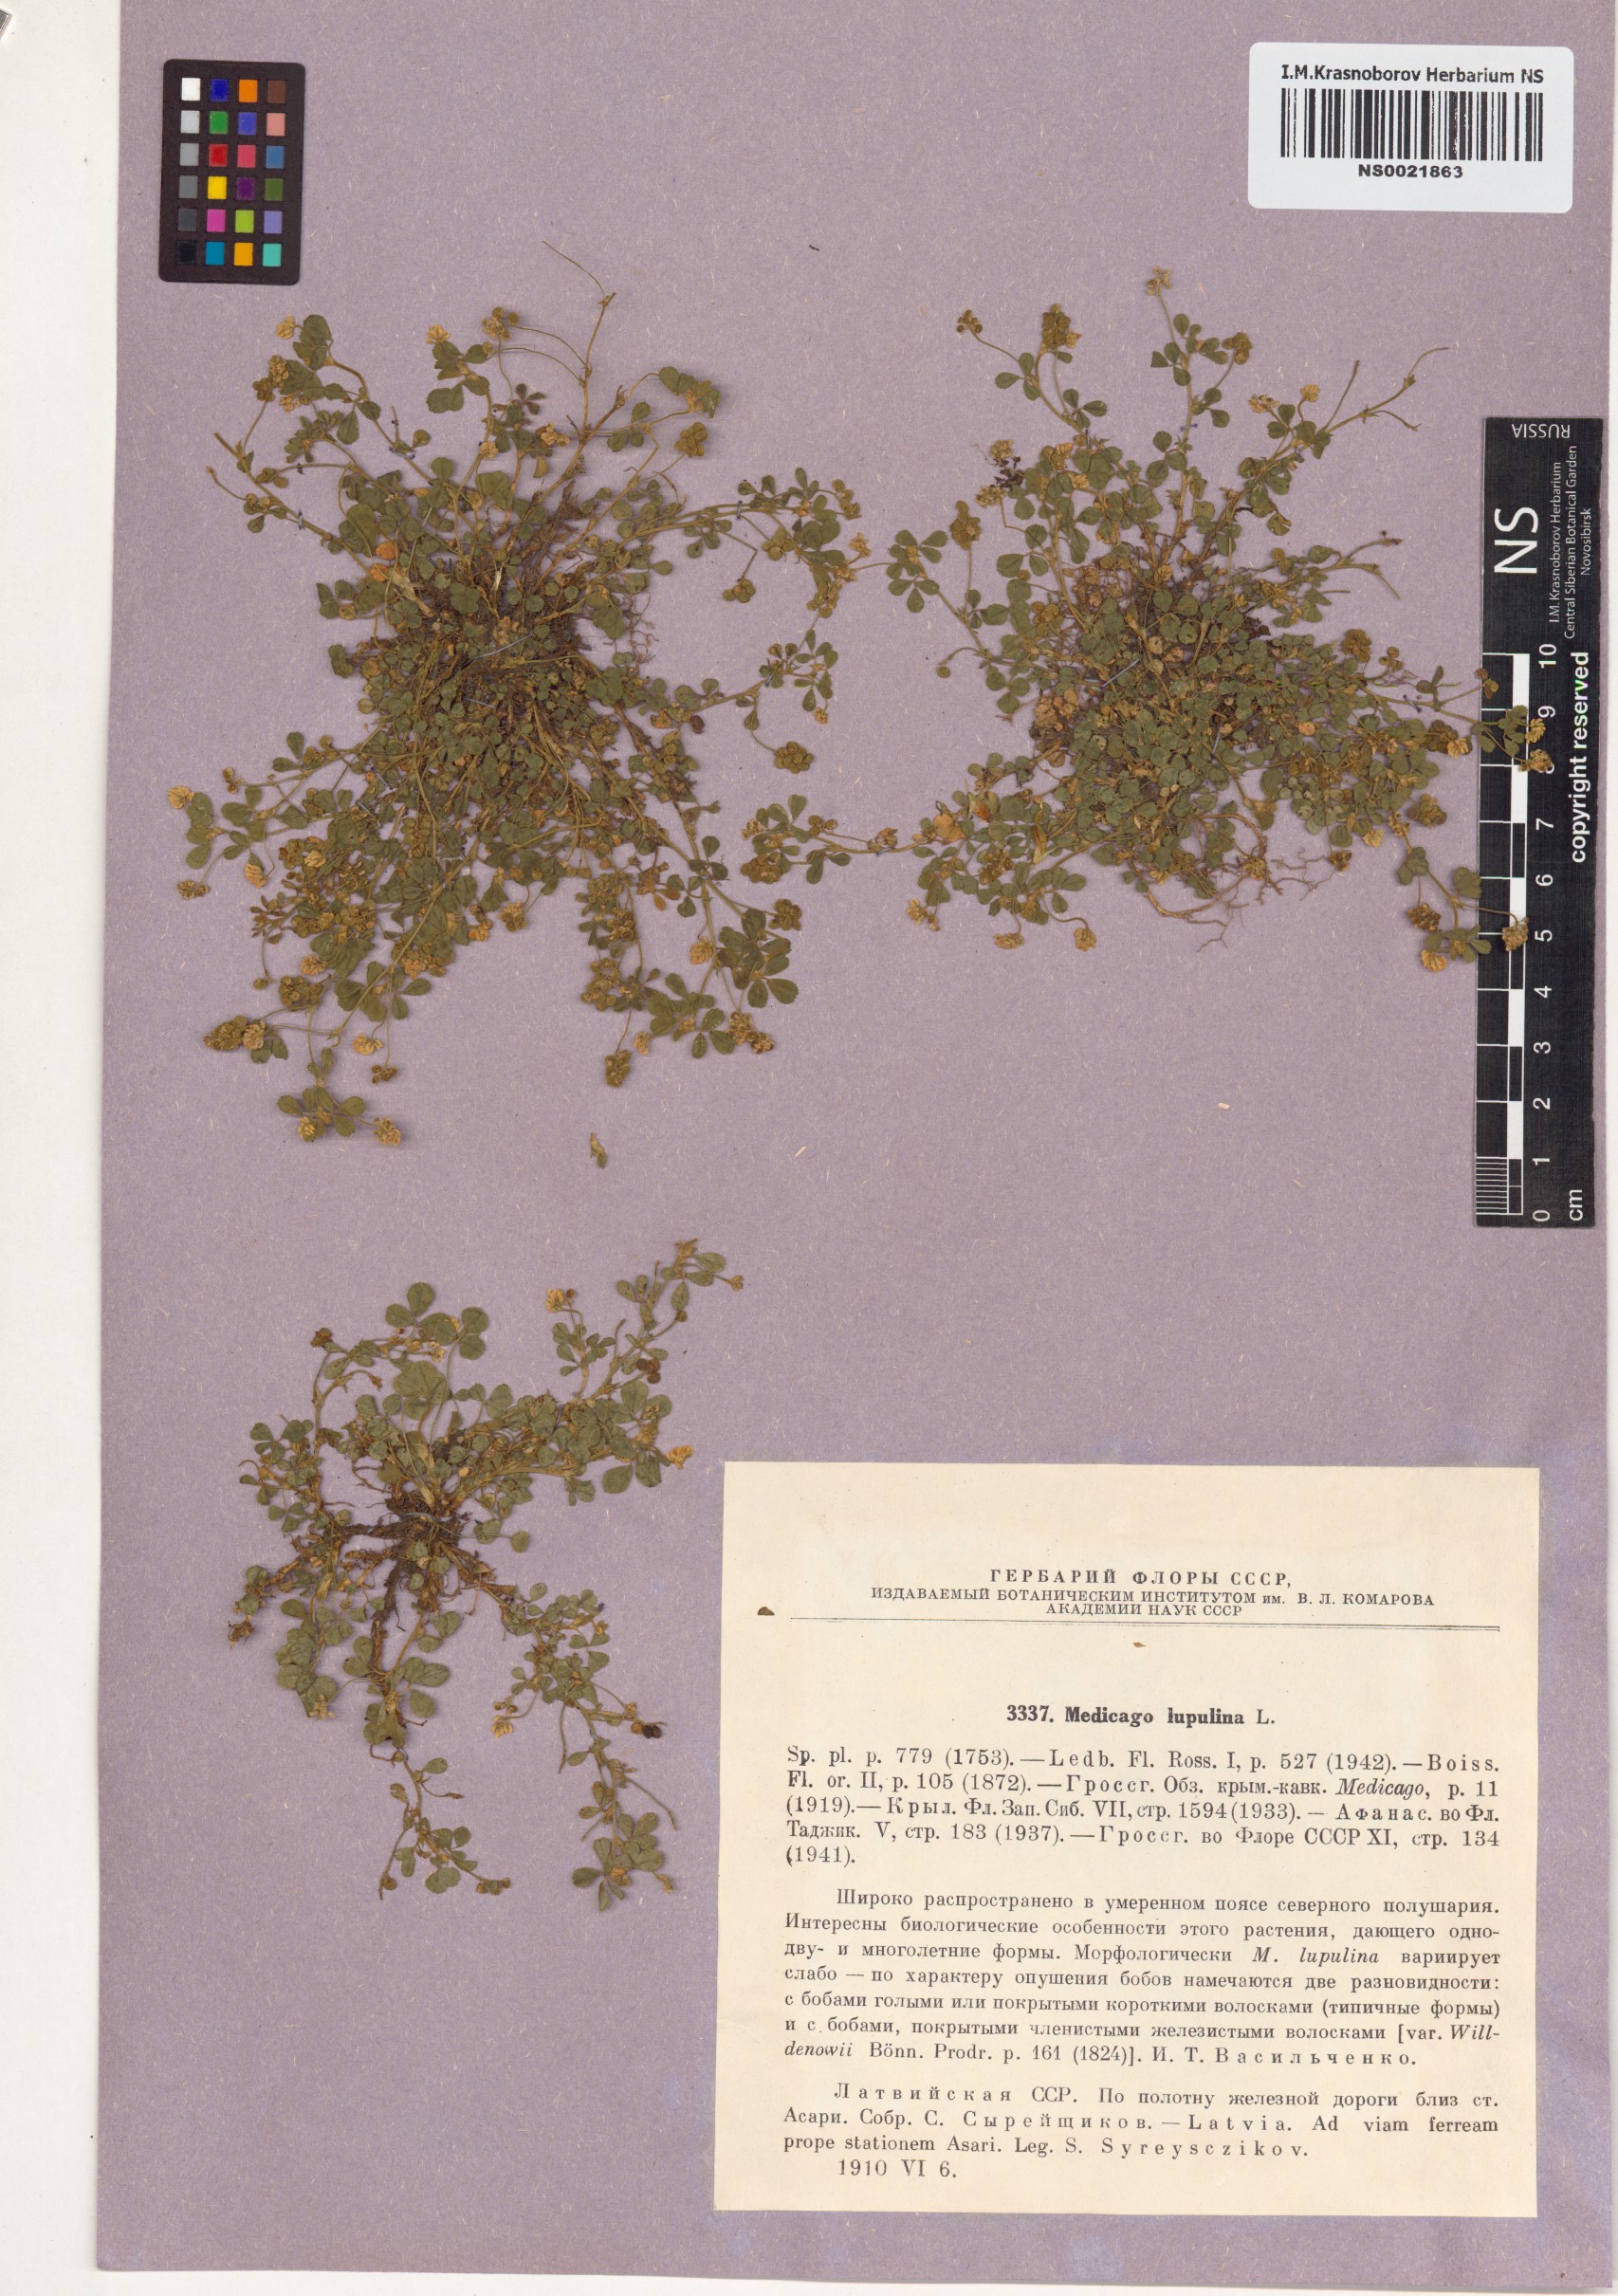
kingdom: Plantae
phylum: Tracheophyta
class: Magnoliopsida
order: Fabales
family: Fabaceae
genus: Medicago
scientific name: Medicago lupulina
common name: Black medick
